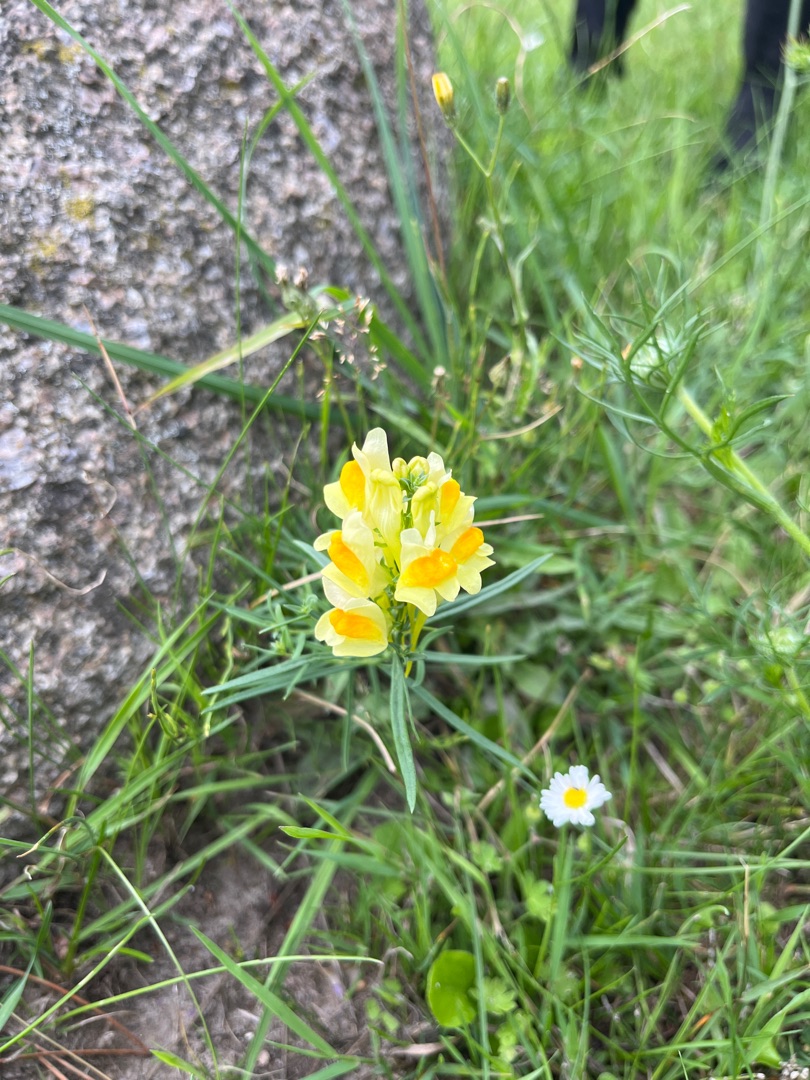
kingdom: Plantae
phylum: Tracheophyta
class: Magnoliopsida
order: Lamiales
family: Plantaginaceae
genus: Linaria
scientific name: Linaria vulgaris
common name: Almindelig torskemund
